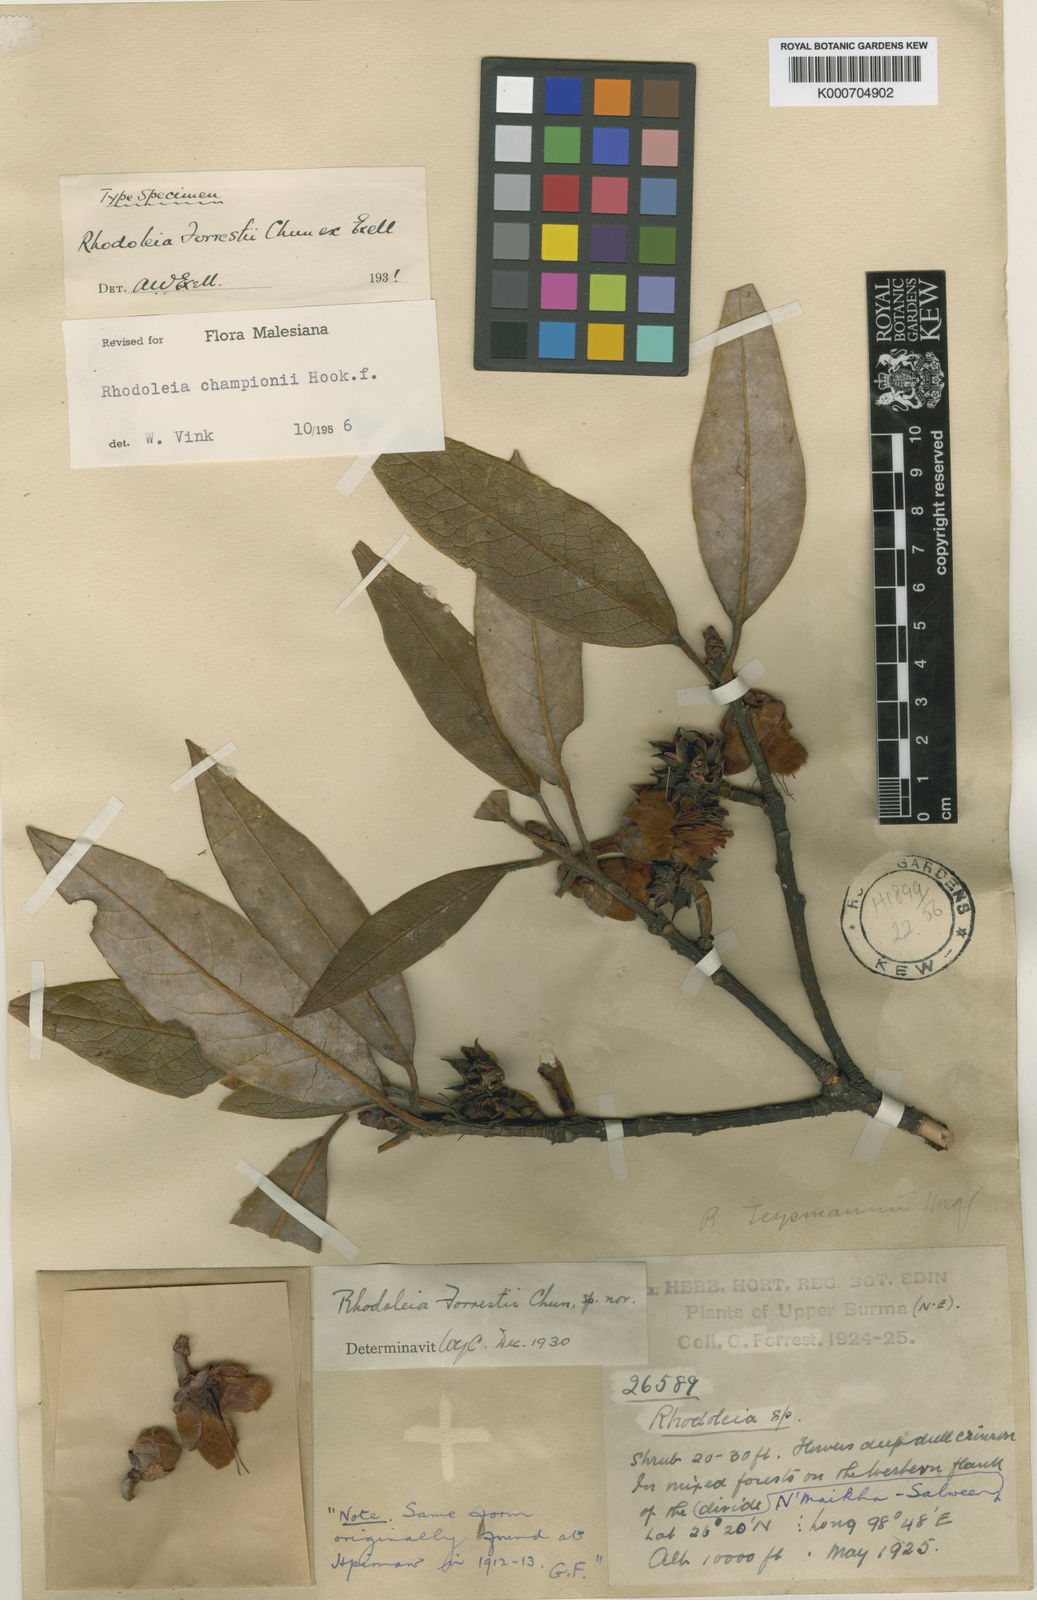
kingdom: Plantae
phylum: Tracheophyta
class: Magnoliopsida
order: Saxifragales
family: Hamamelidaceae
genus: Rhodoleia
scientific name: Rhodoleia forrestii
